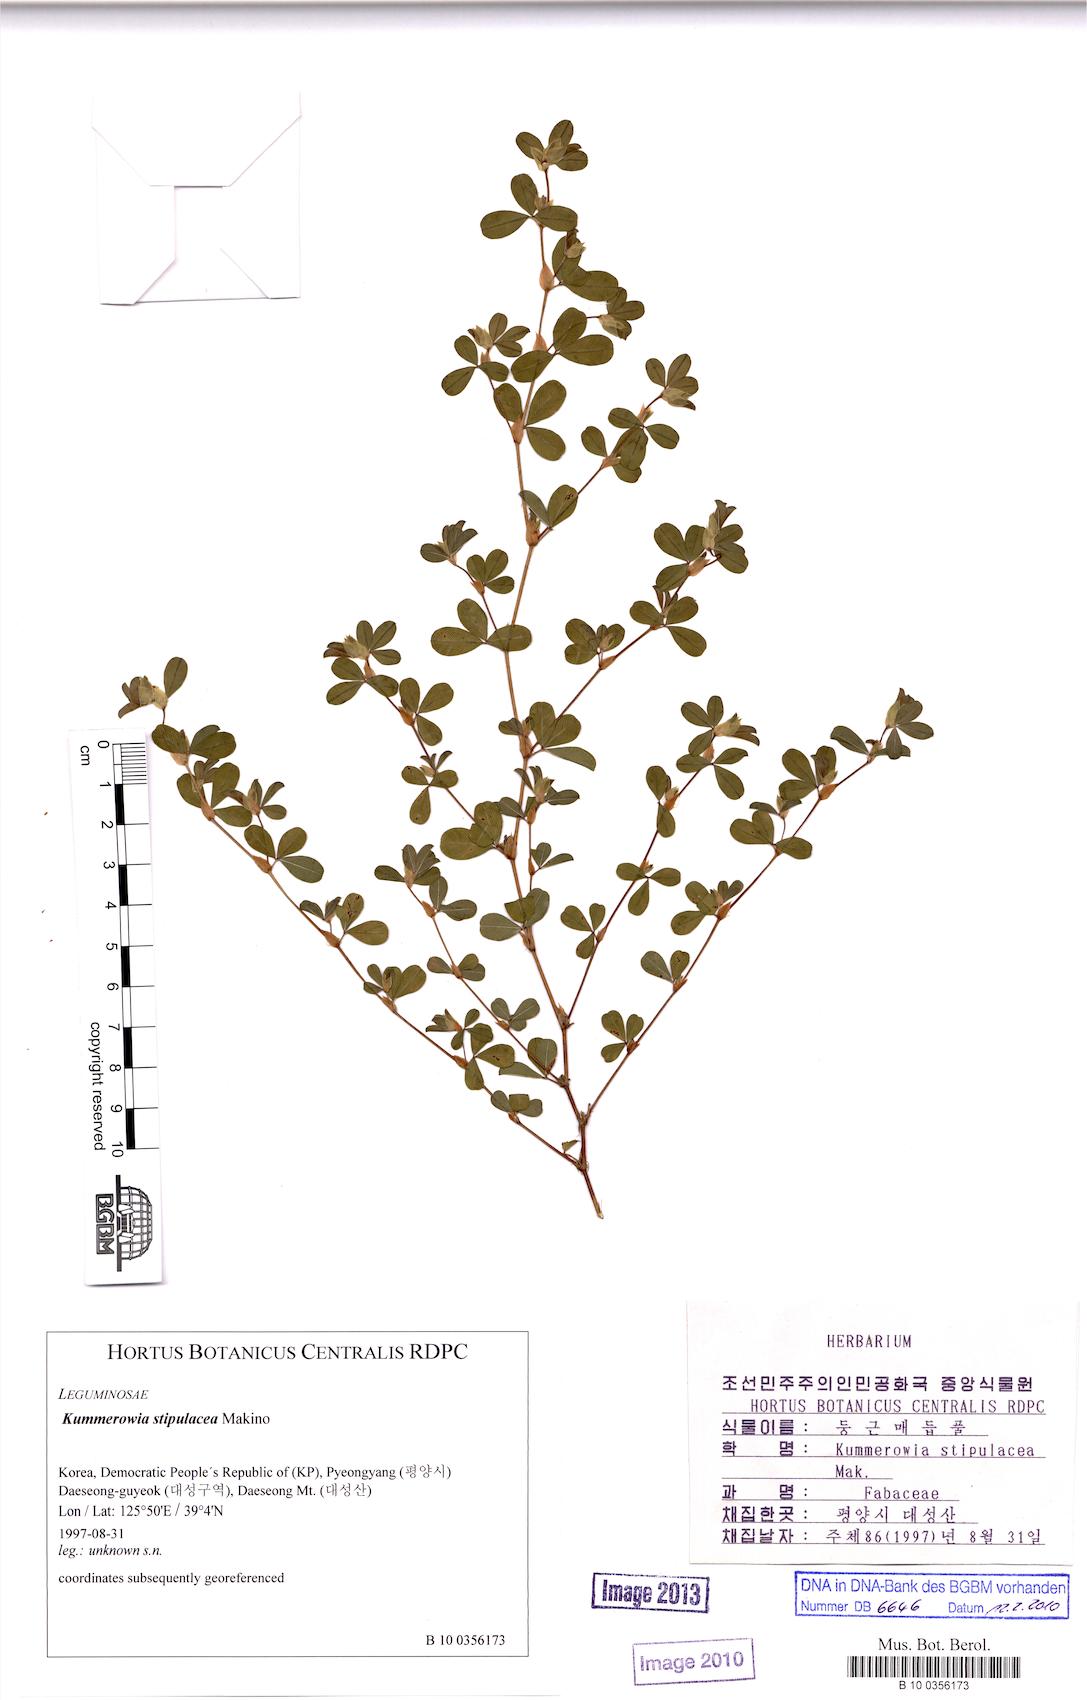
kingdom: Plantae
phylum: Tracheophyta
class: Magnoliopsida
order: Fabales
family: Fabaceae
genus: Kummerowia
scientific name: Kummerowia stipulacea
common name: Korean clover
